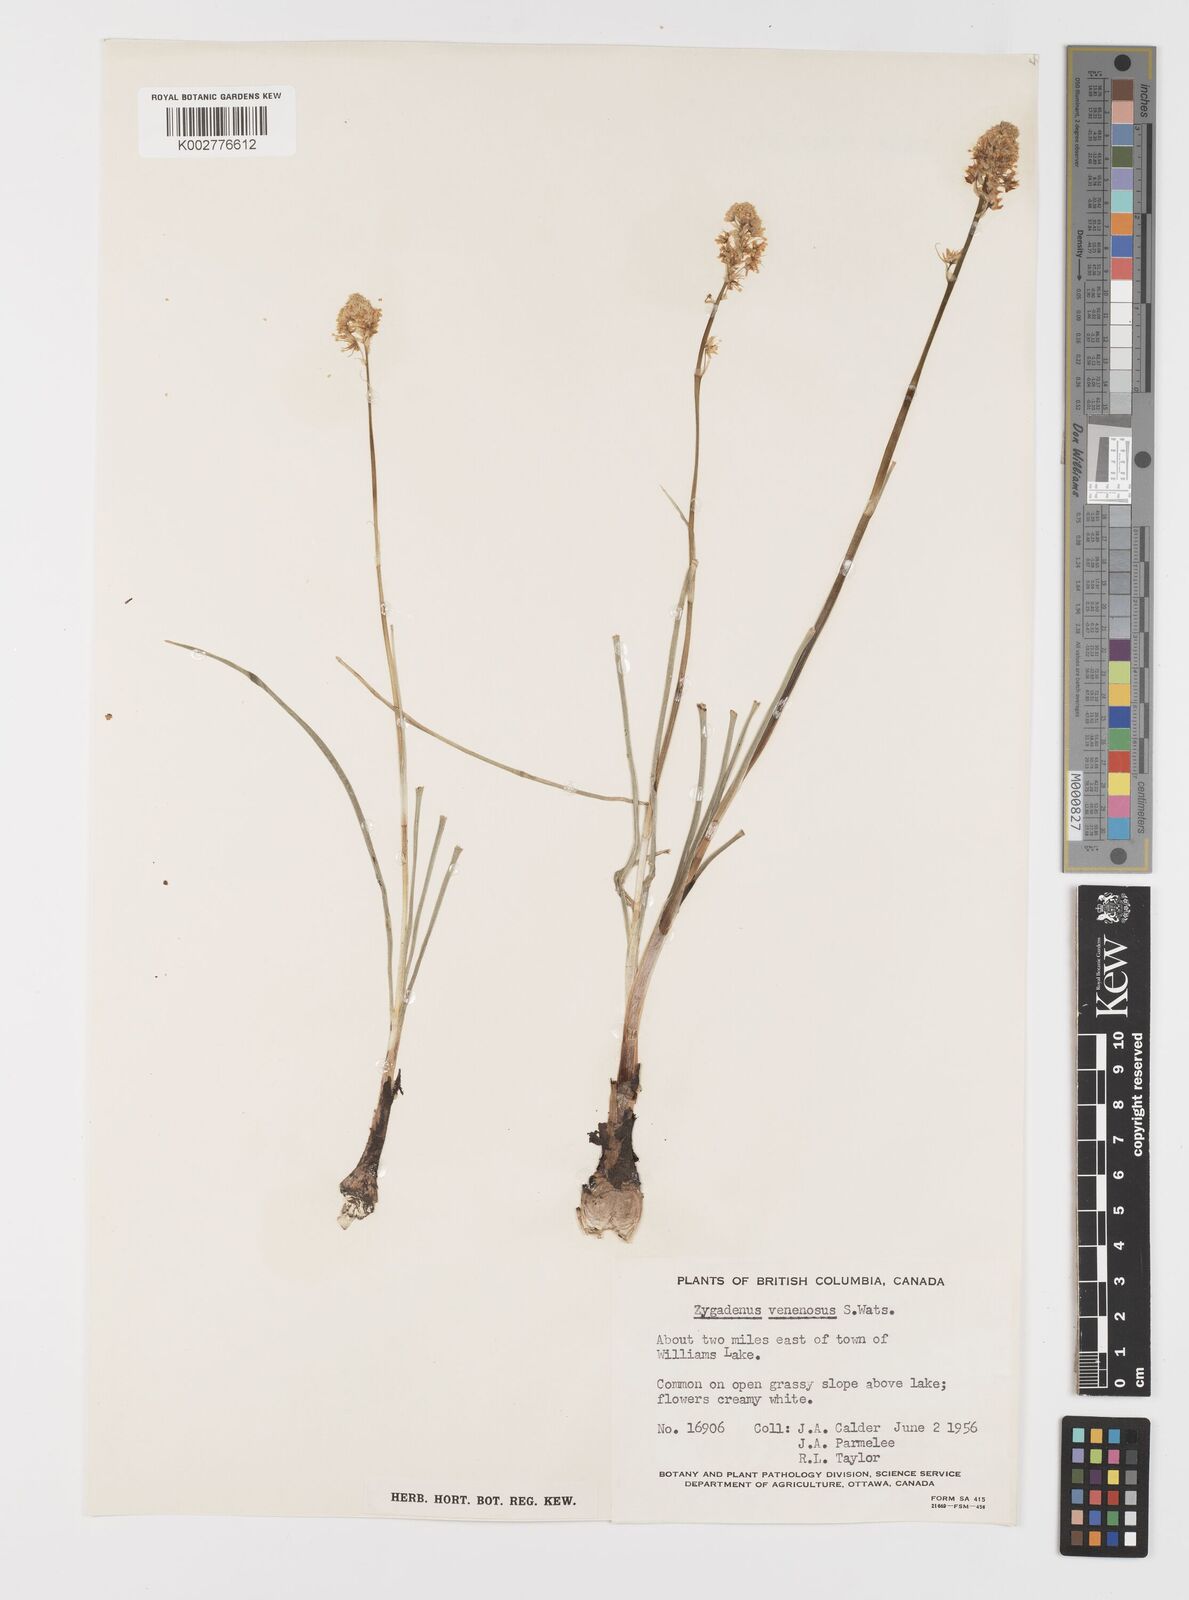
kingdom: Plantae
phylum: Tracheophyta
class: Liliopsida
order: Liliales
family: Melanthiaceae
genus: Toxicoscordion
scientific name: Toxicoscordion venenosum
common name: Meadow death camas
